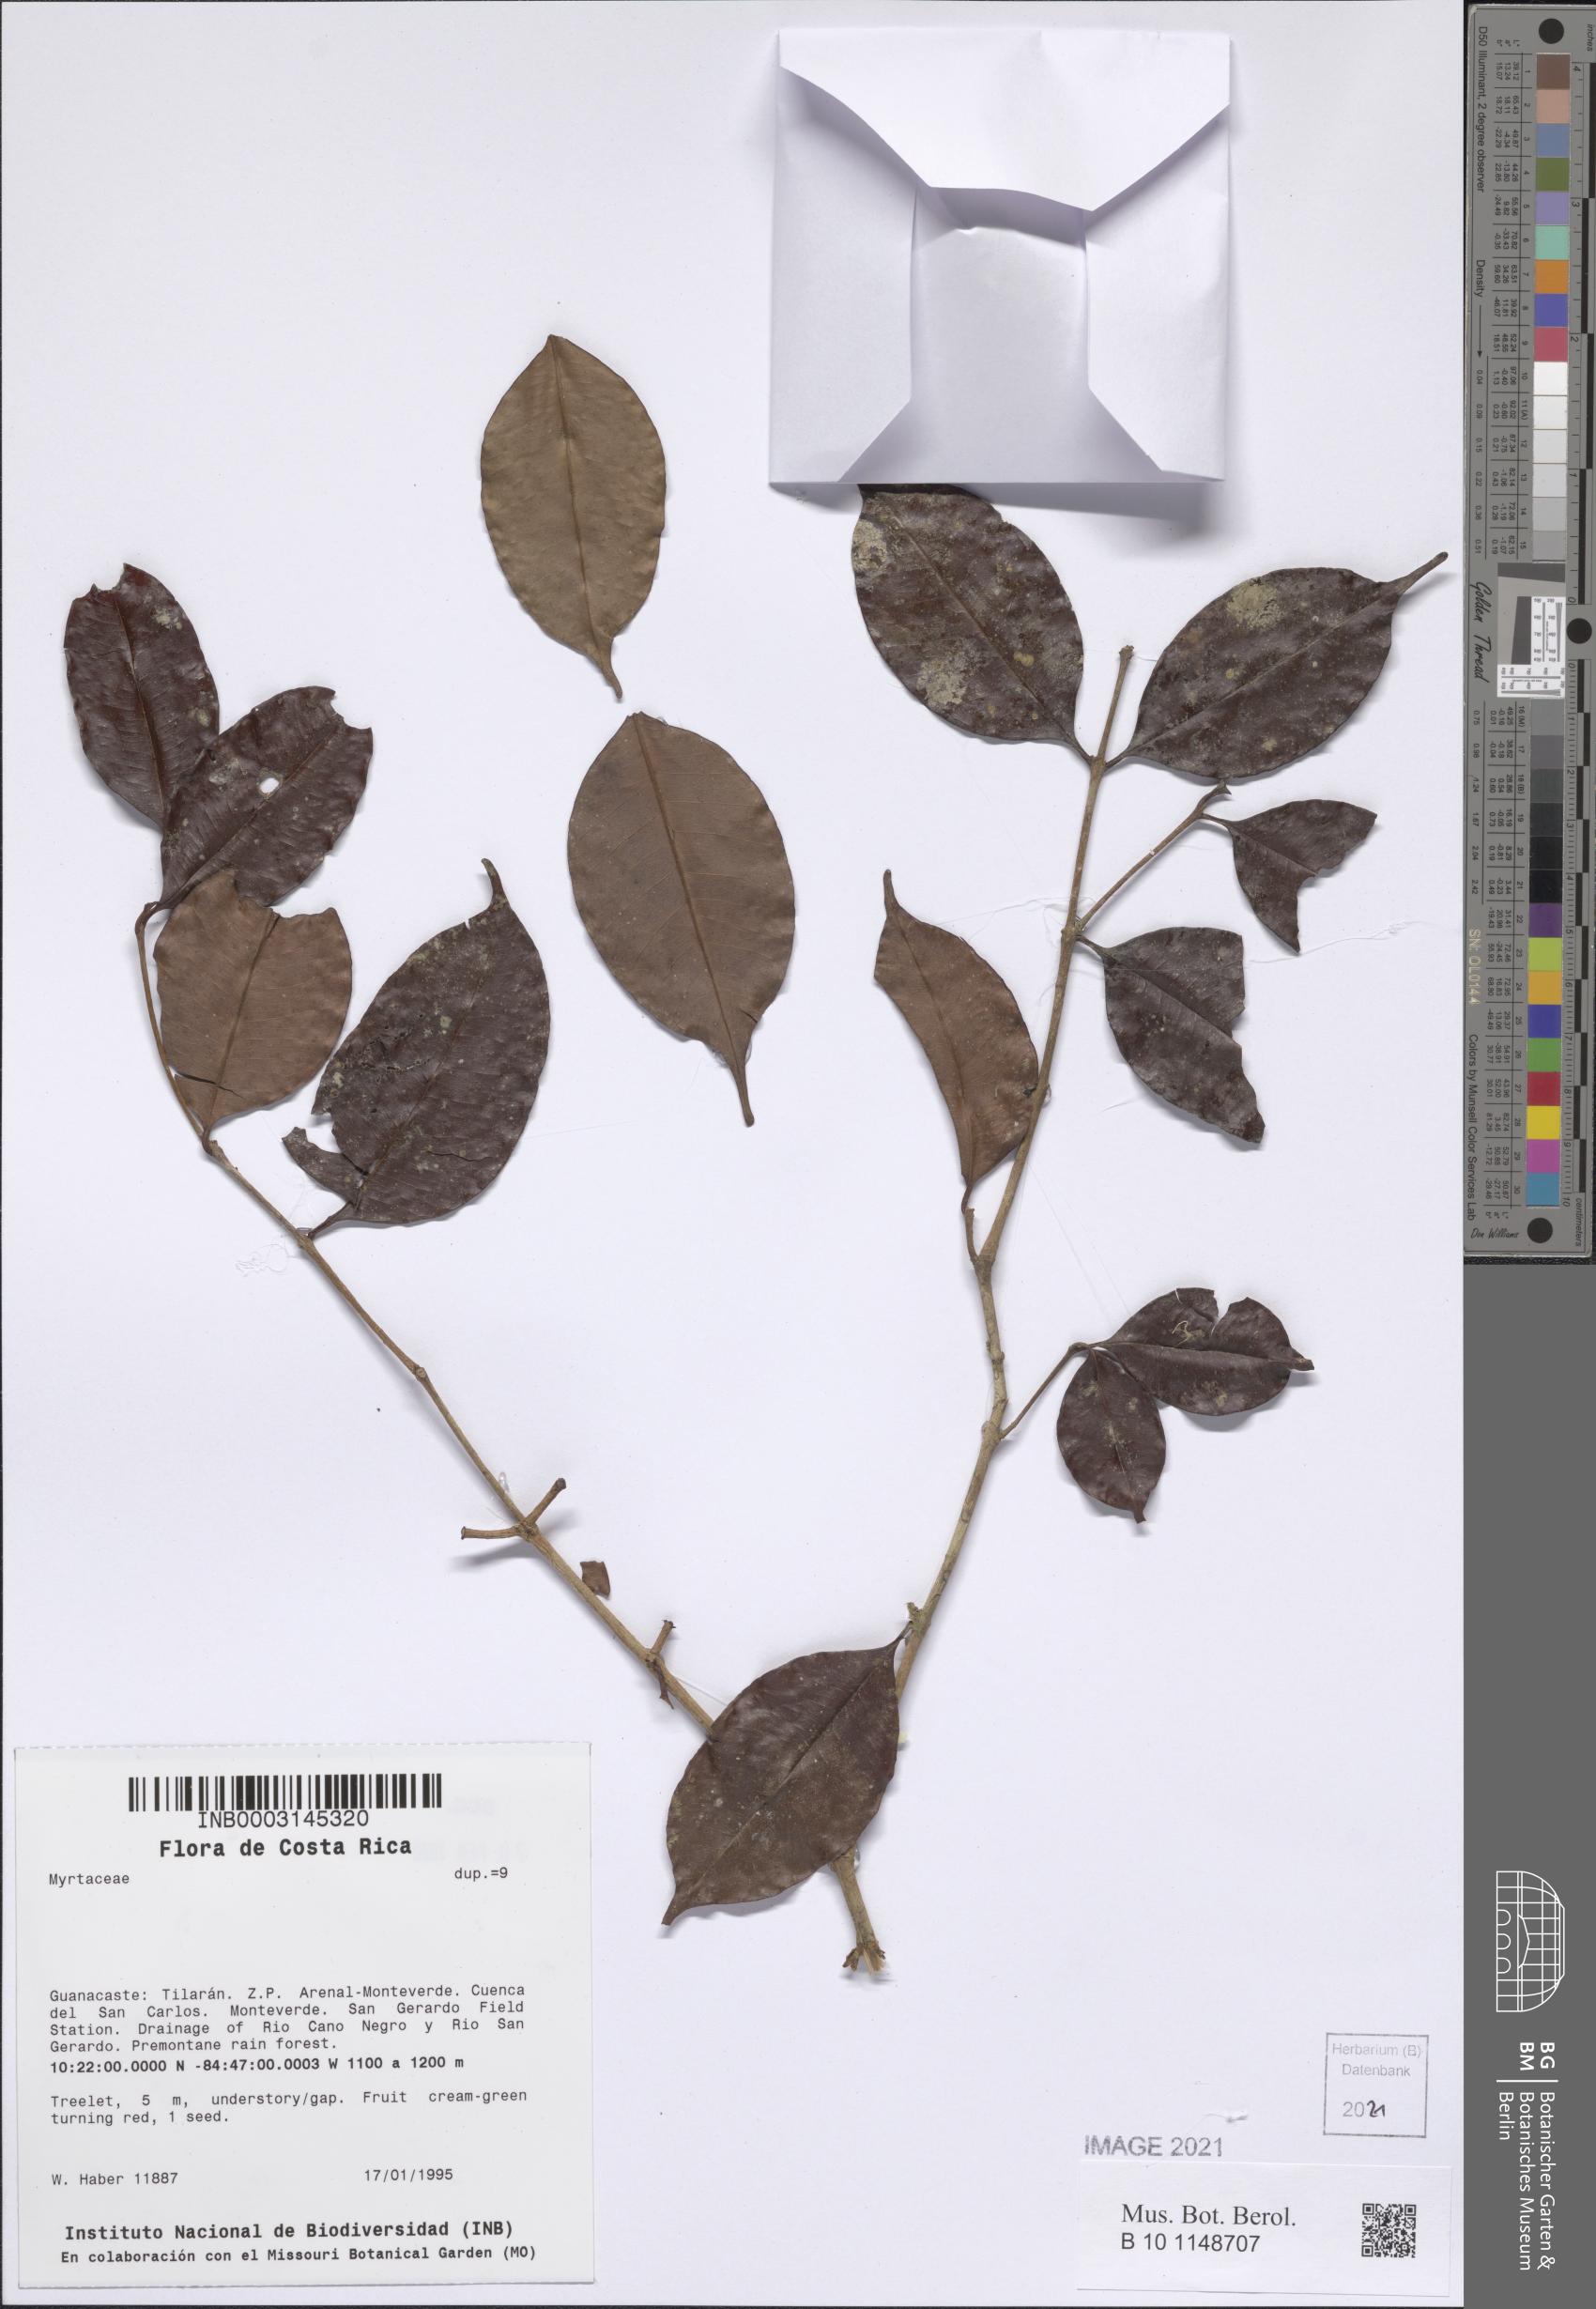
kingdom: Plantae
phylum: Tracheophyta
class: Magnoliopsida
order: Myrtales
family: Myrtaceae
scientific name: Myrtaceae
